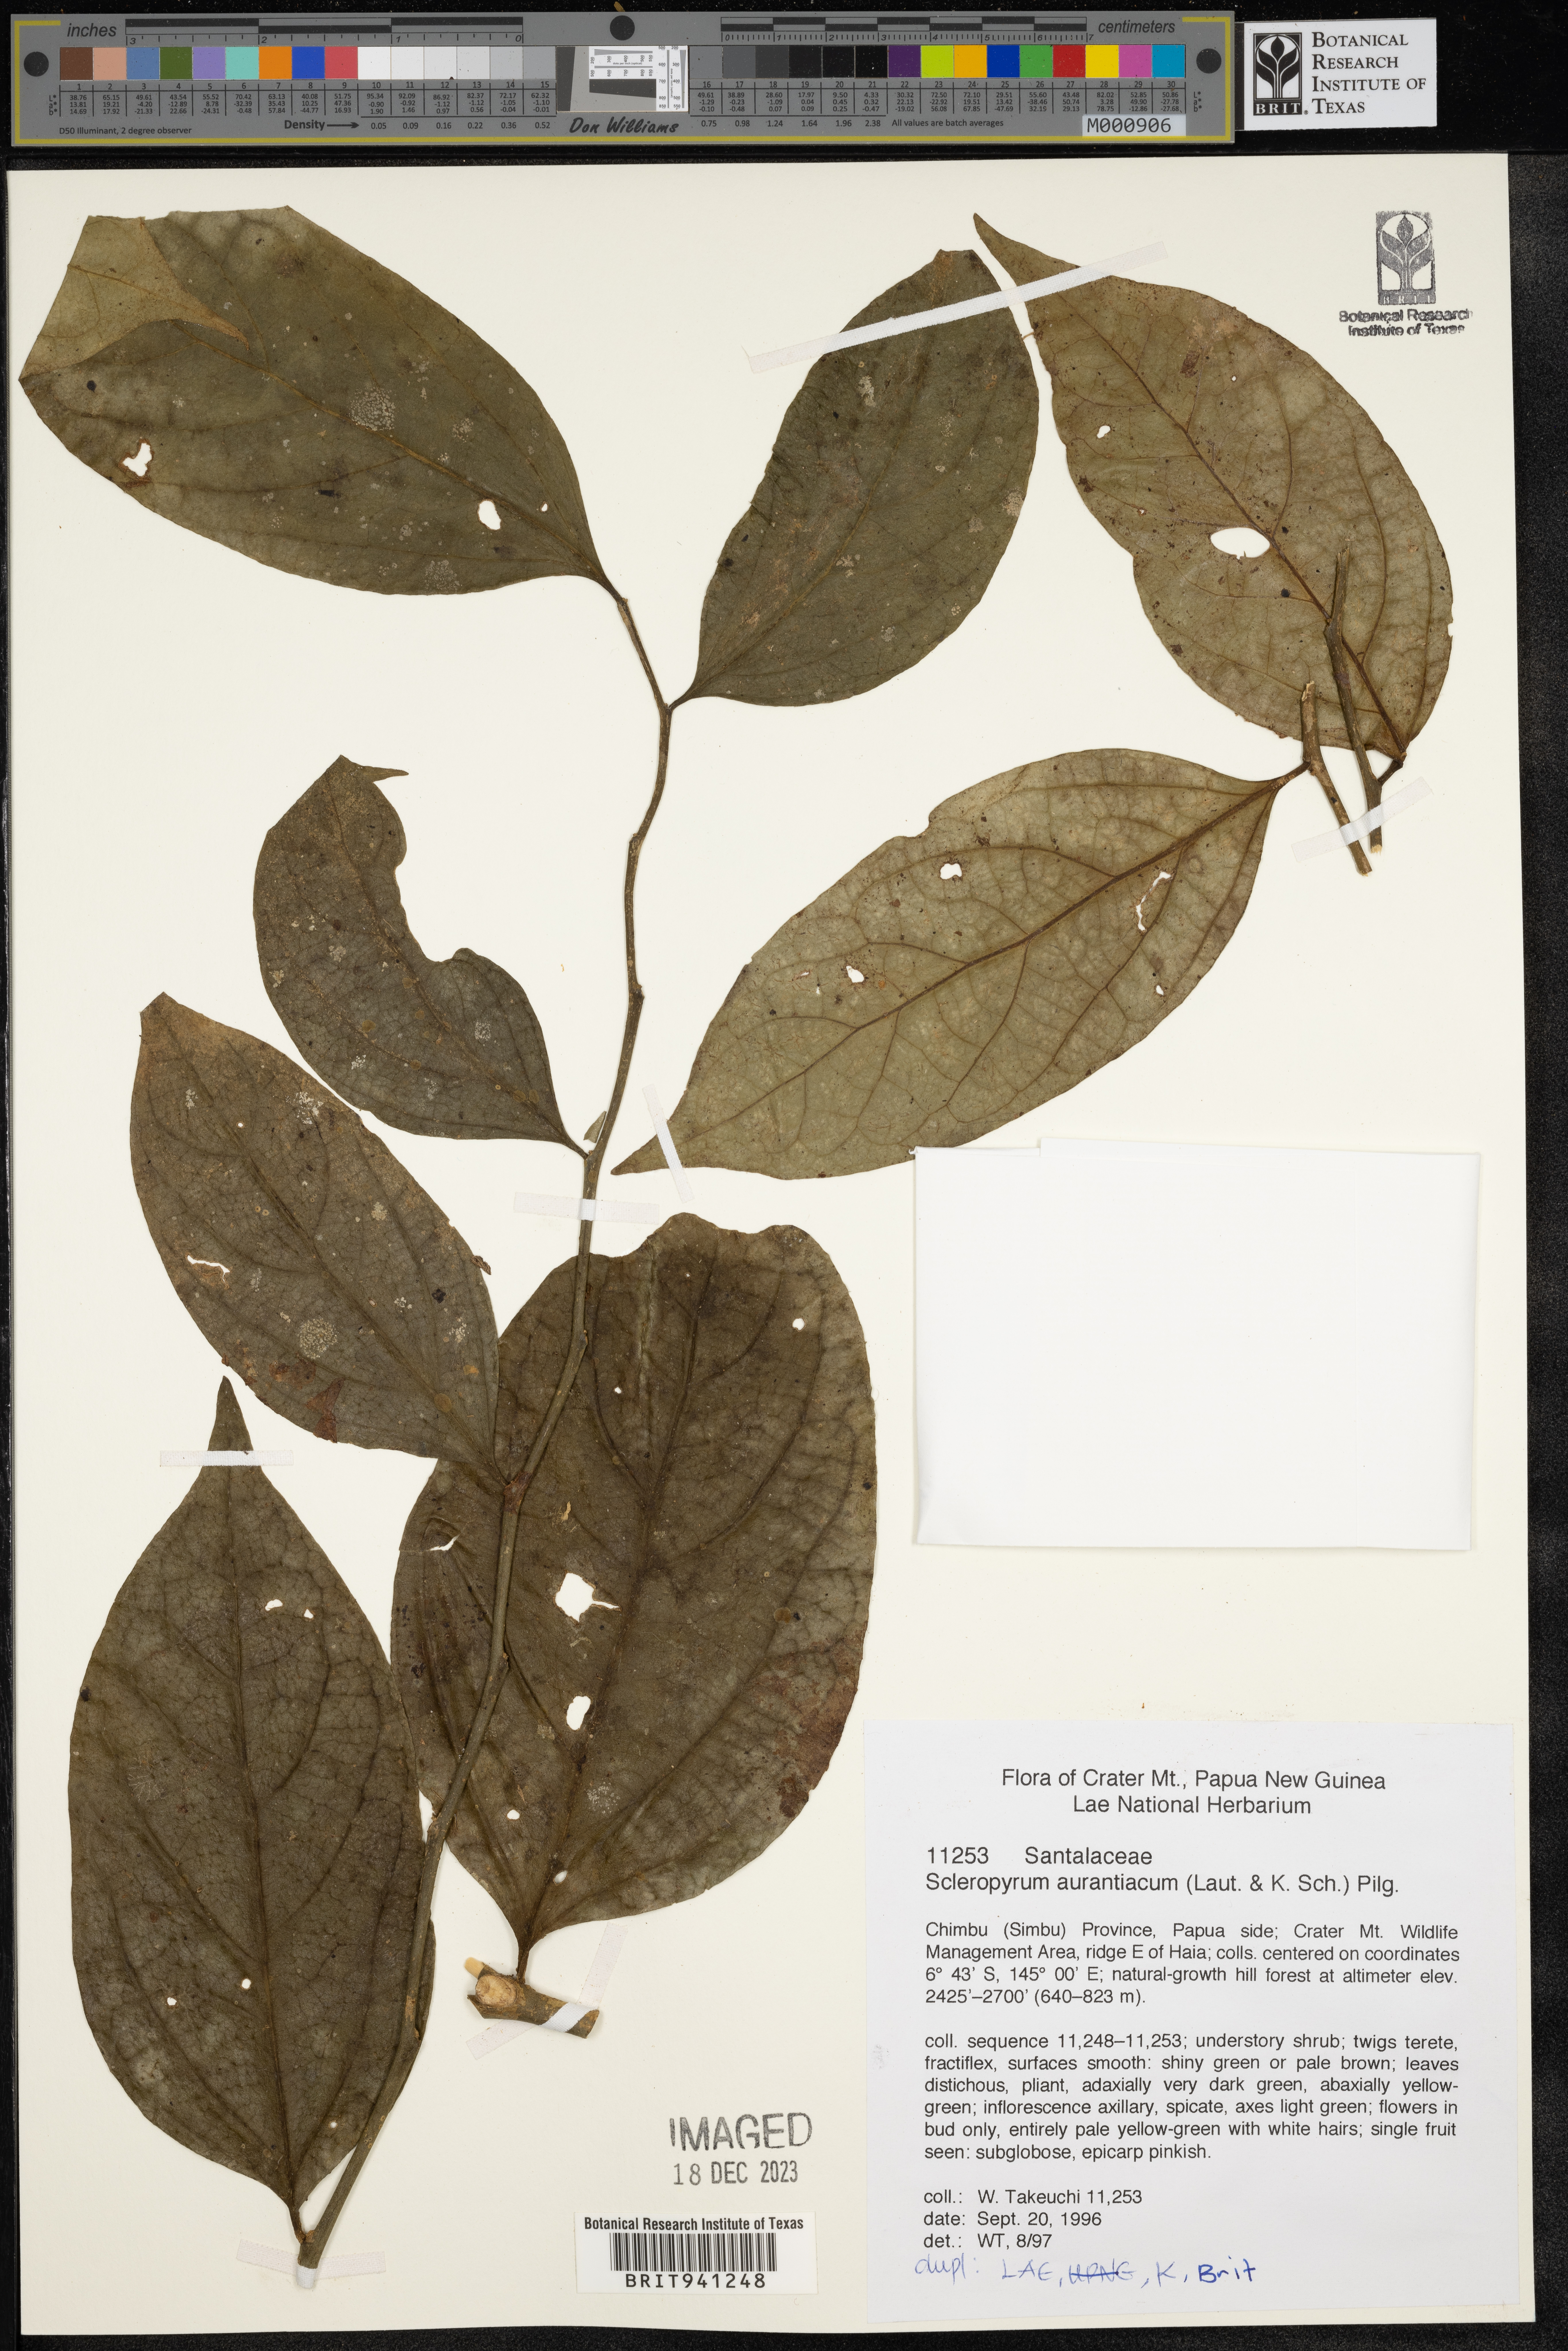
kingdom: Plantae
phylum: Tracheophyta
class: Magnoliopsida
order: Santalales
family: Cervantesiaceae
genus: Scleropyrum
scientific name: Scleropyrum
